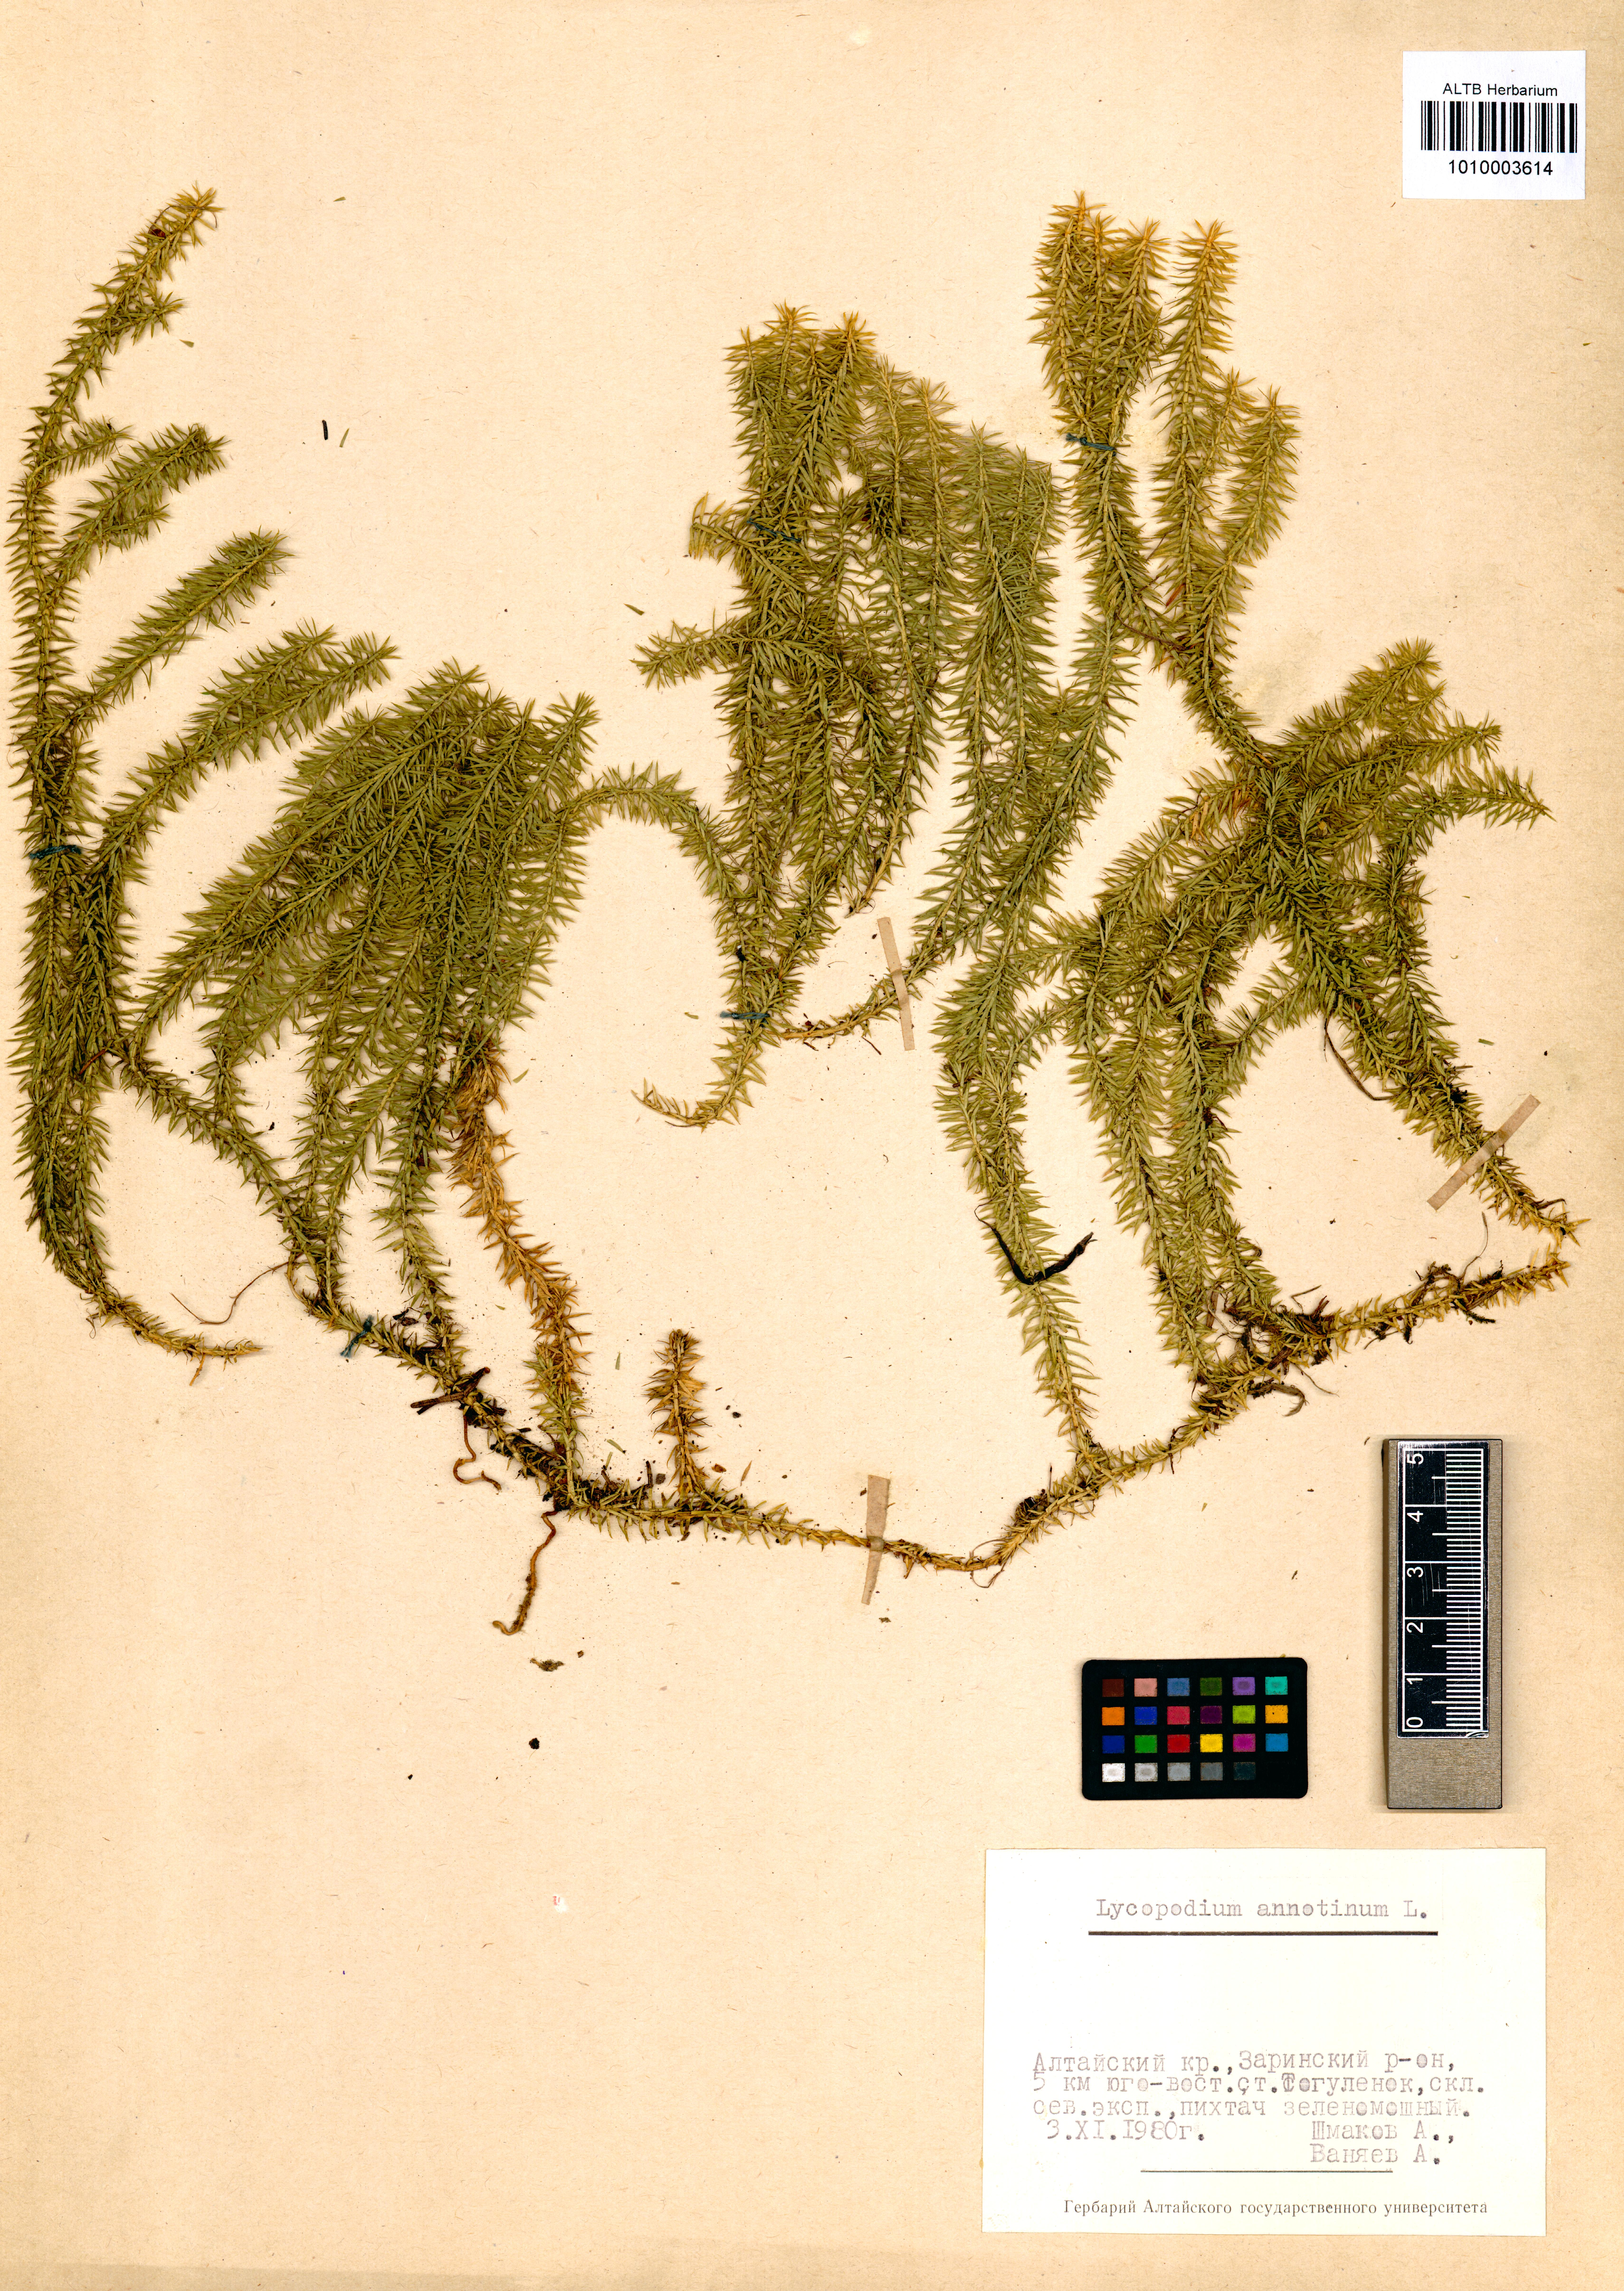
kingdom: Plantae
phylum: Tracheophyta
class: Lycopodiopsida
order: Lycopodiales
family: Lycopodiaceae
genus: Spinulum
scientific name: Spinulum annotinum
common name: Interrupted club-moss
